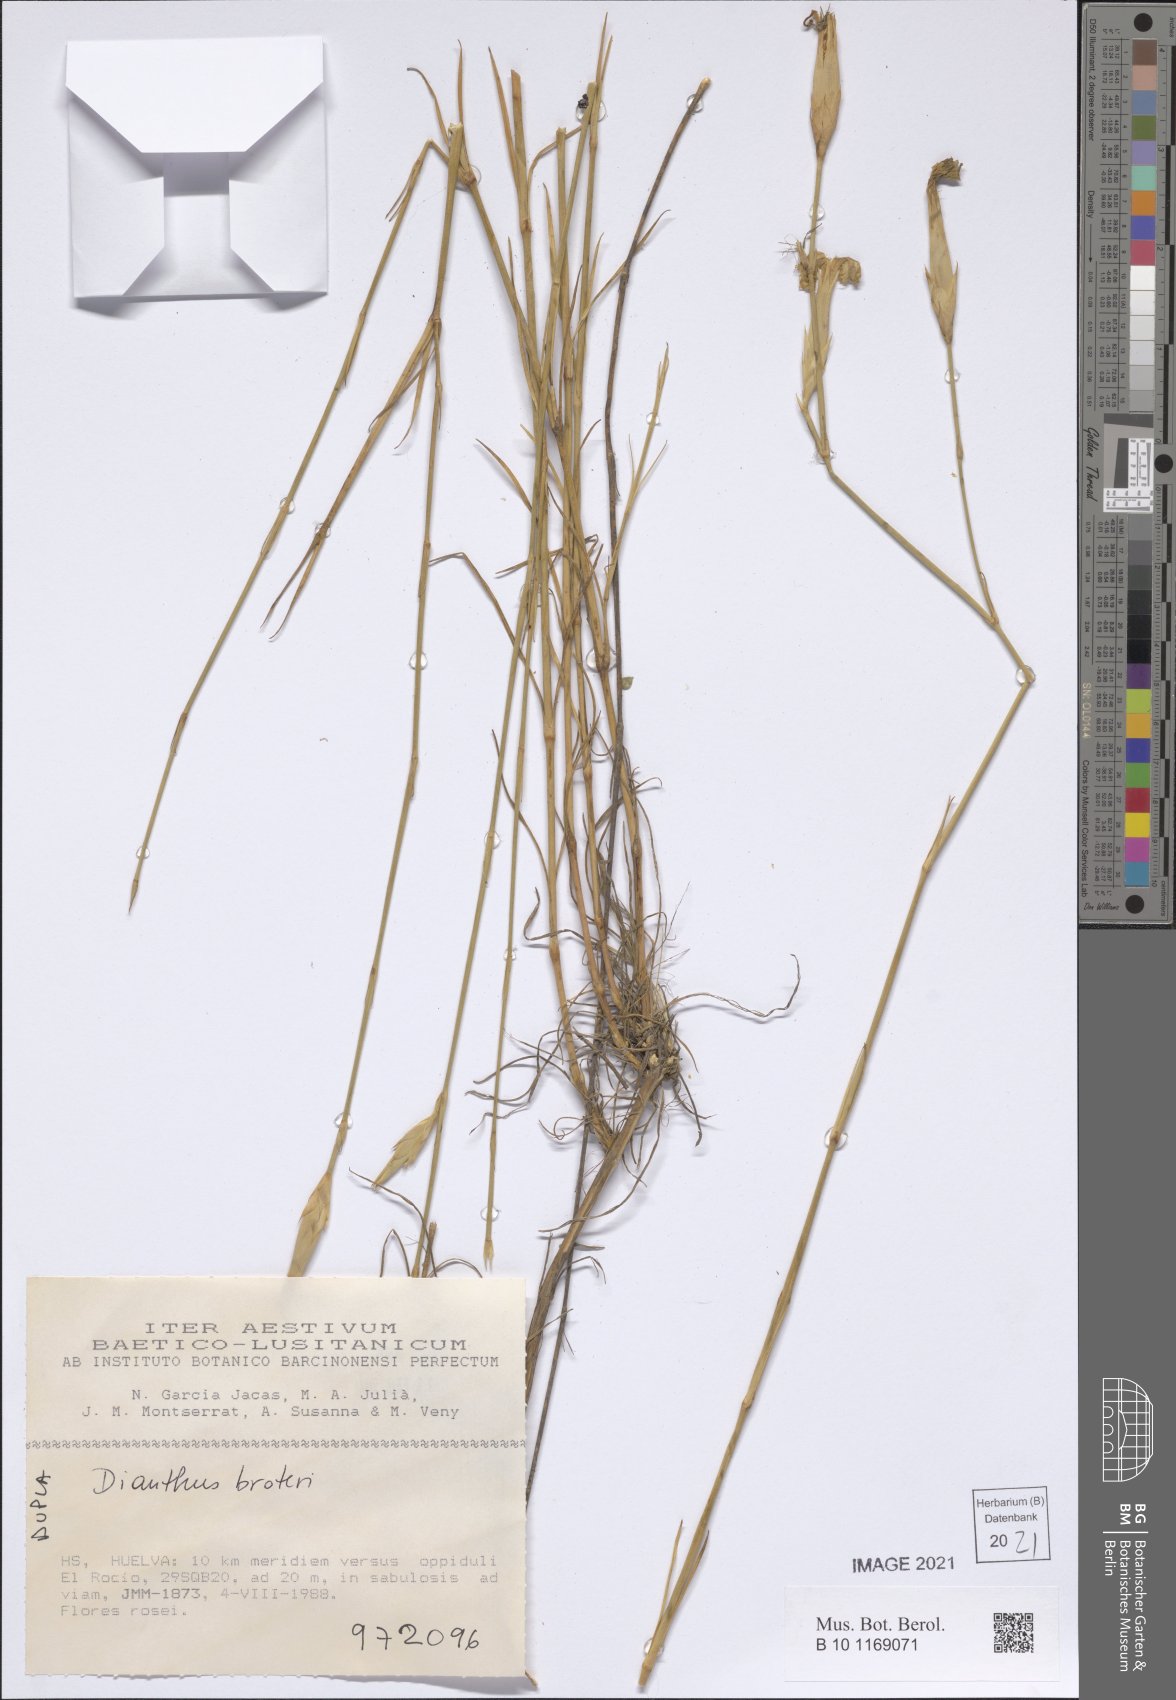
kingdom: Plantae
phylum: Tracheophyta
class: Magnoliopsida
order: Caryophyllales
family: Caryophyllaceae
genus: Dianthus
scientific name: Dianthus broteri
